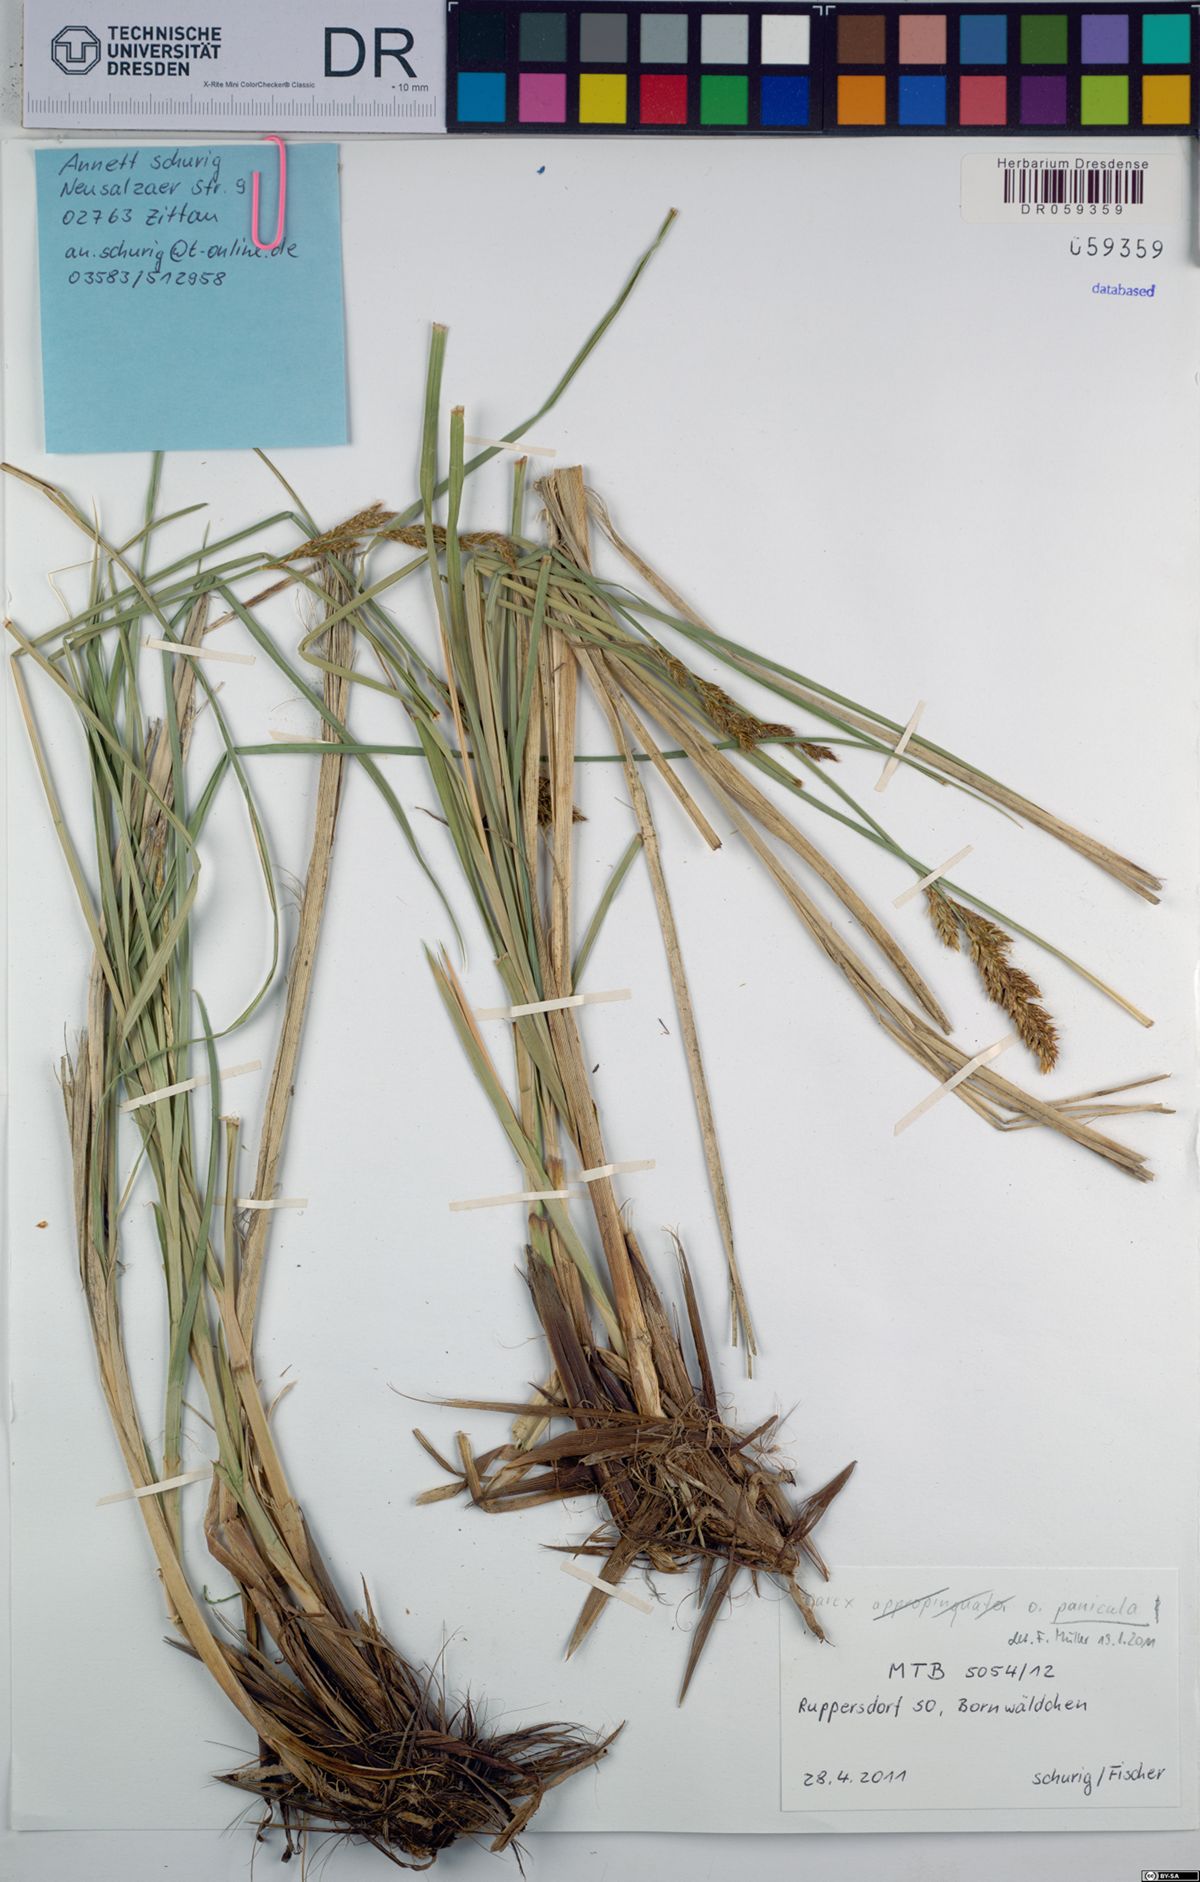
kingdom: Plantae
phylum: Tracheophyta
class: Liliopsida
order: Poales
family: Cyperaceae
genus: Carex
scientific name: Carex paniculata
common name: Greater tussock-sedge
